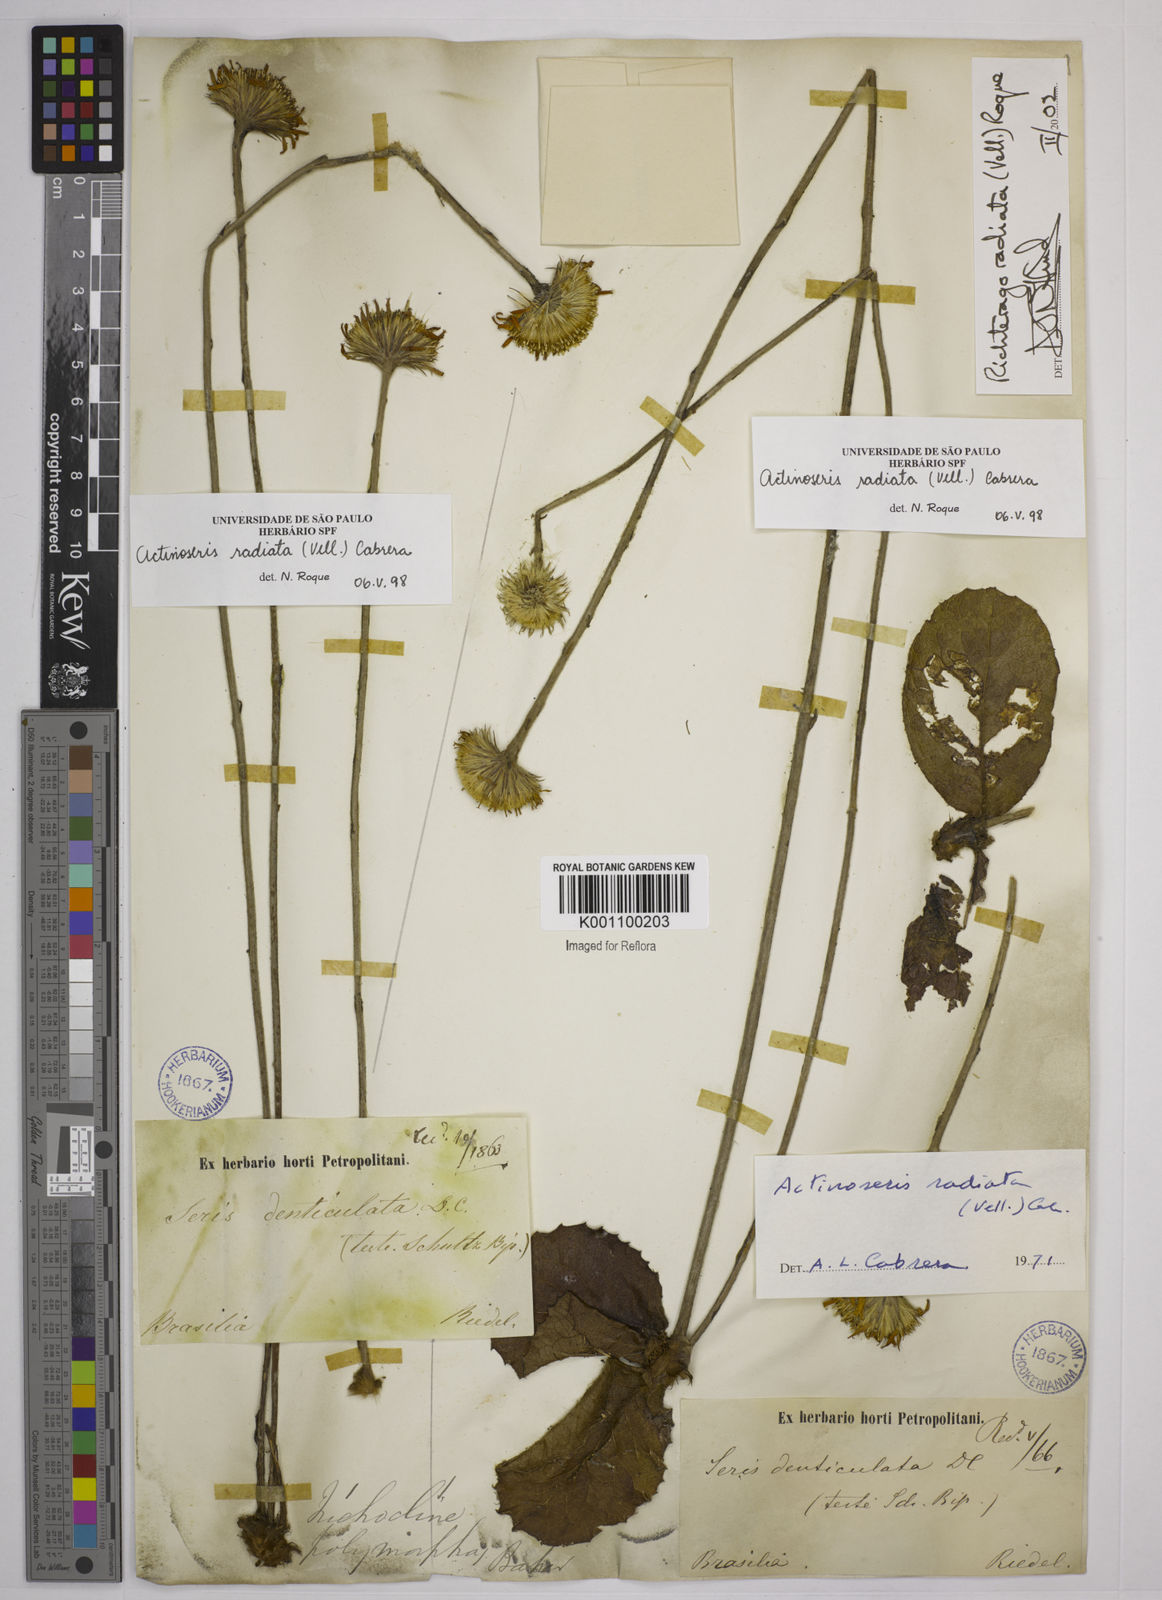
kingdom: Plantae
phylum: Tracheophyta
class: Magnoliopsida
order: Asterales
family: Asteraceae
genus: Richterago
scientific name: Richterago radiata
